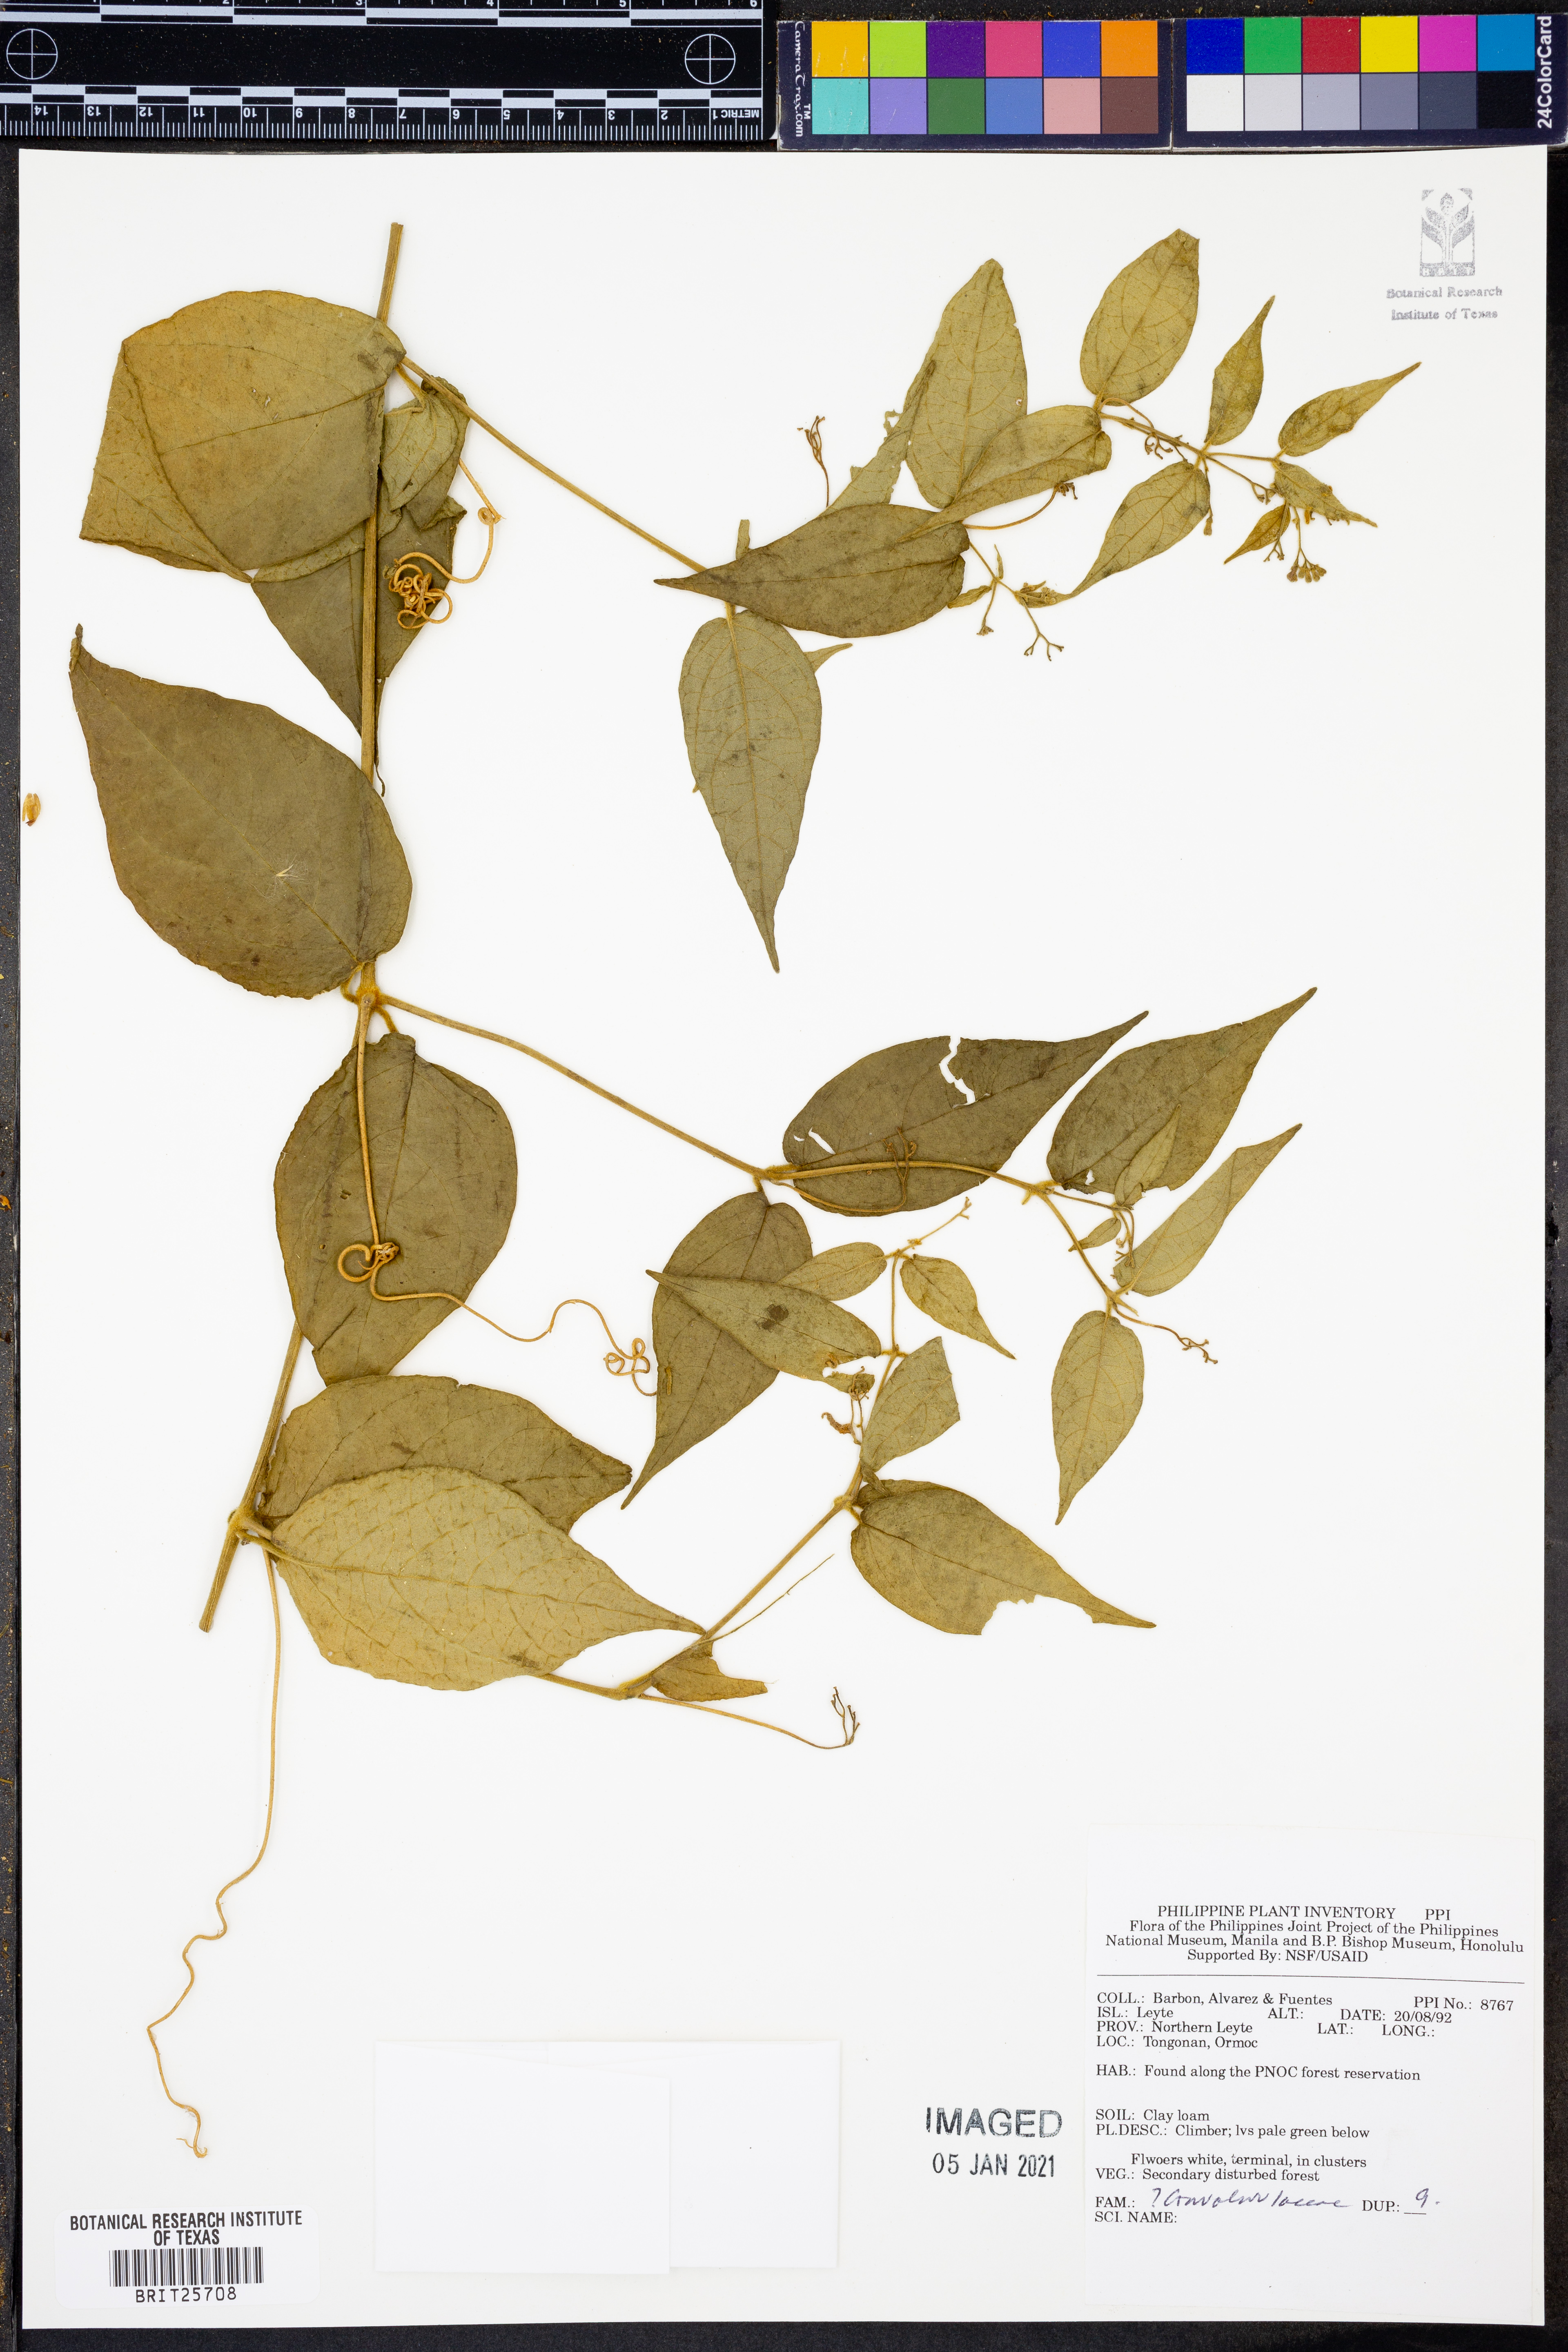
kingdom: Plantae
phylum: Tracheophyta
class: Magnoliopsida
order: Solanales
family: Convolvulaceae
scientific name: Convolvulaceae
